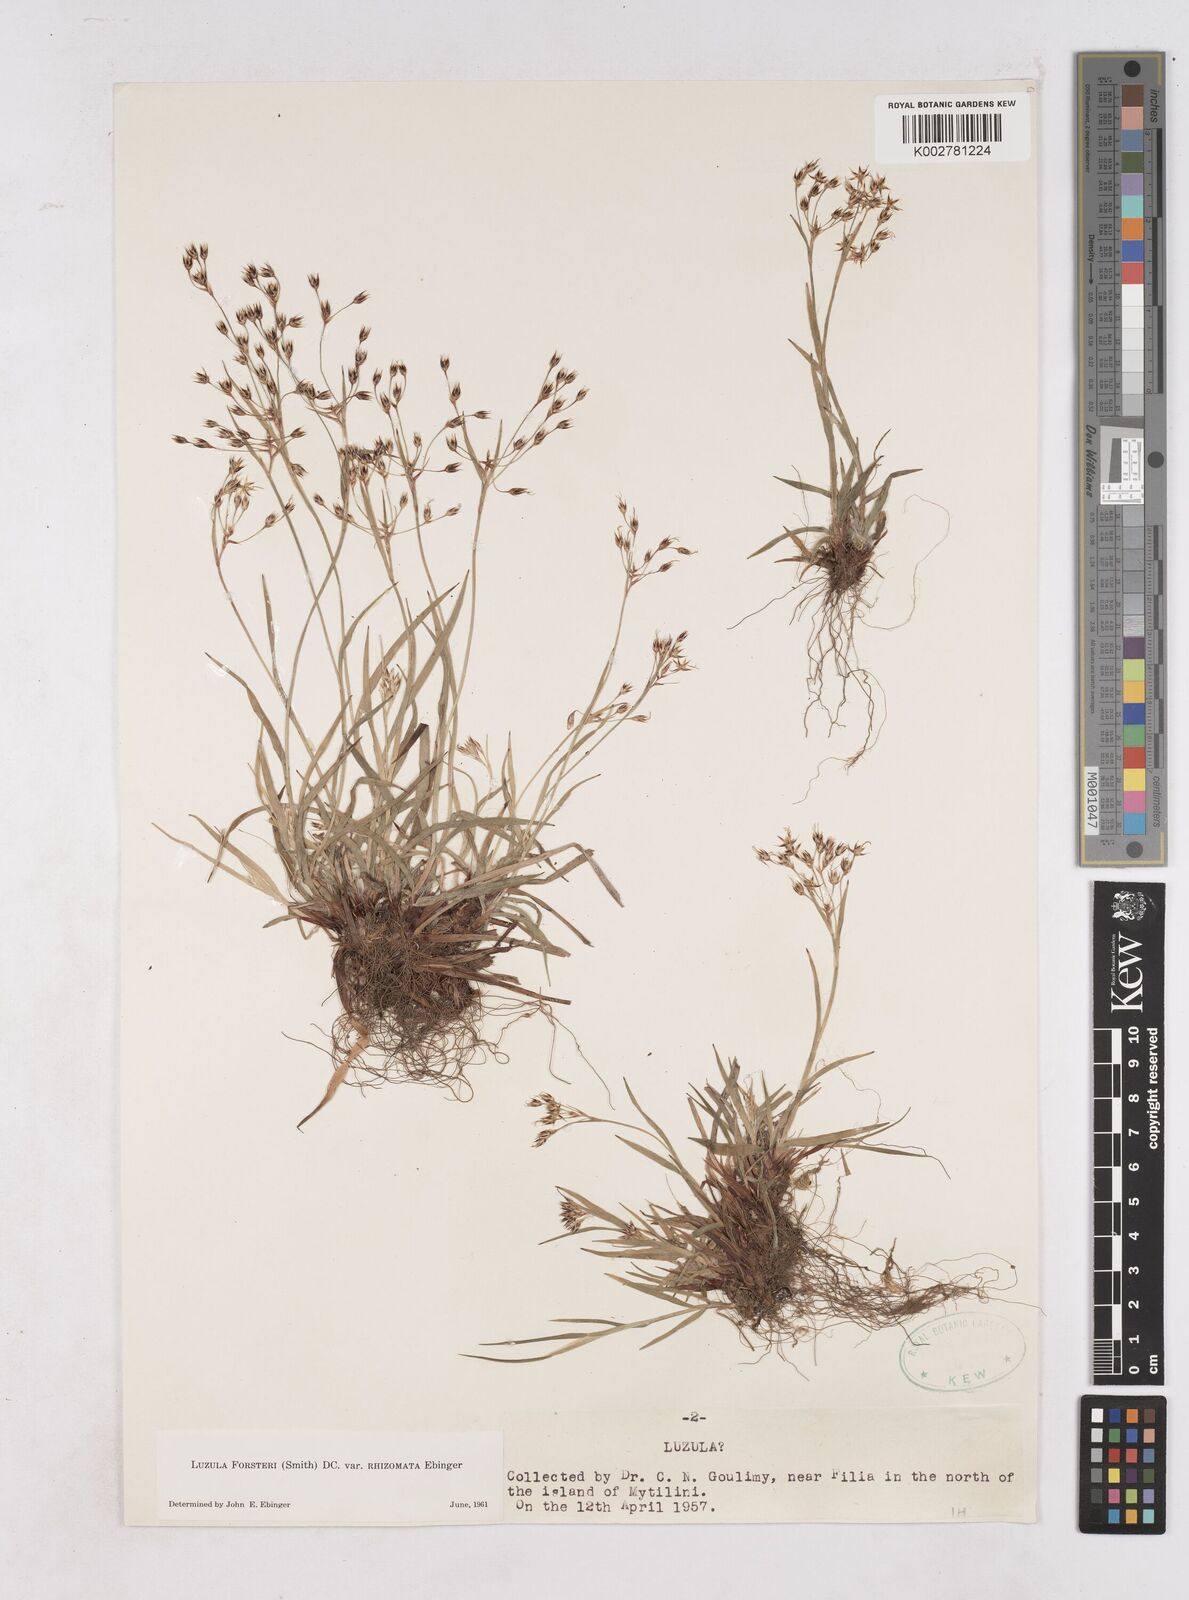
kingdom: Plantae
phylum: Tracheophyta
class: Liliopsida
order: Poales
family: Juncaceae
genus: Luzula
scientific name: Luzula forsteri
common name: Southern wood-rush
